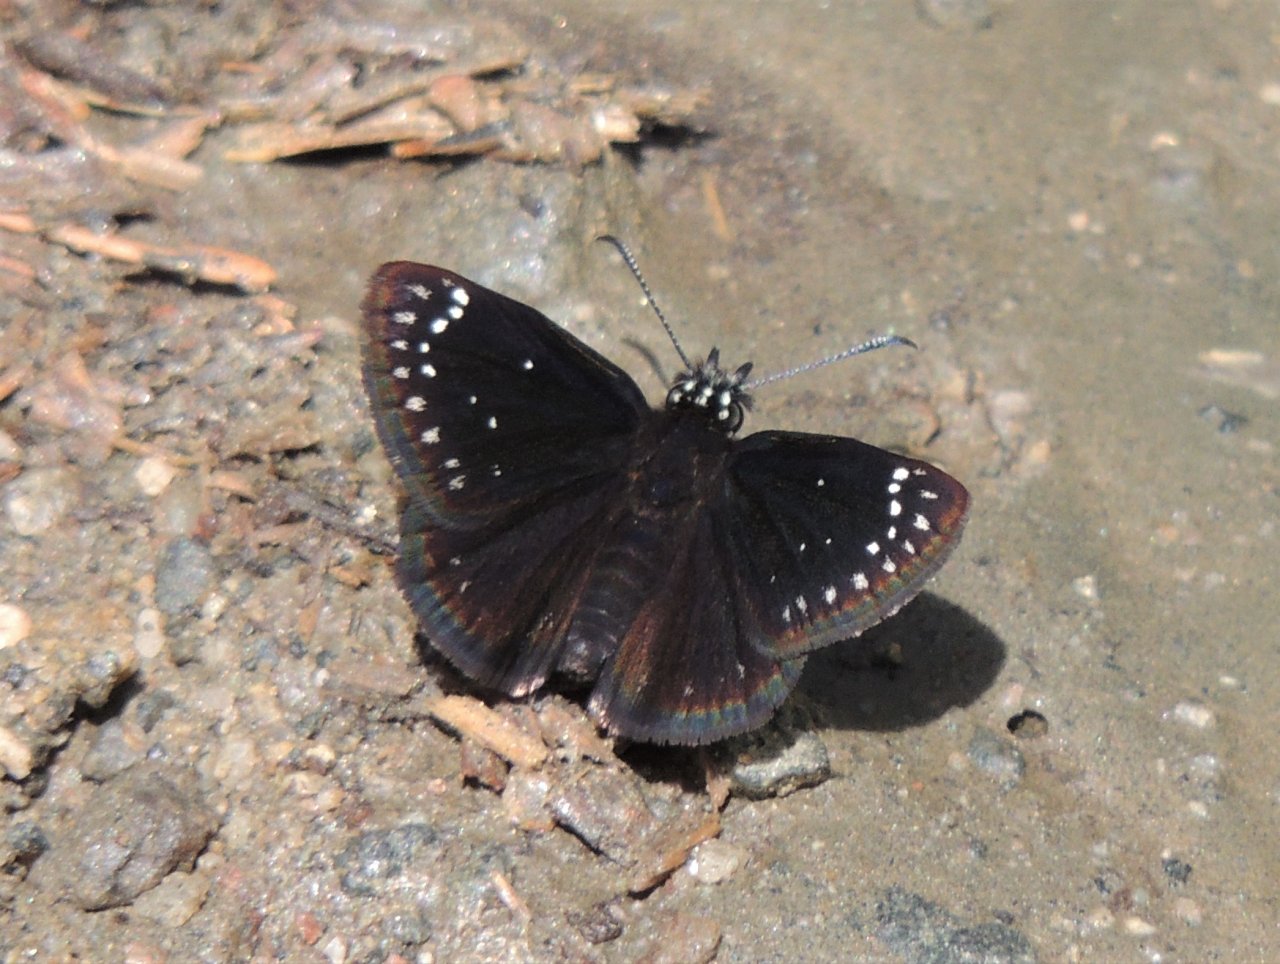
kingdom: Animalia
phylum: Arthropoda
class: Insecta
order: Lepidoptera
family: Hesperiidae
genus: Pholisora
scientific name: Pholisora catullus
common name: Common Sootywing
